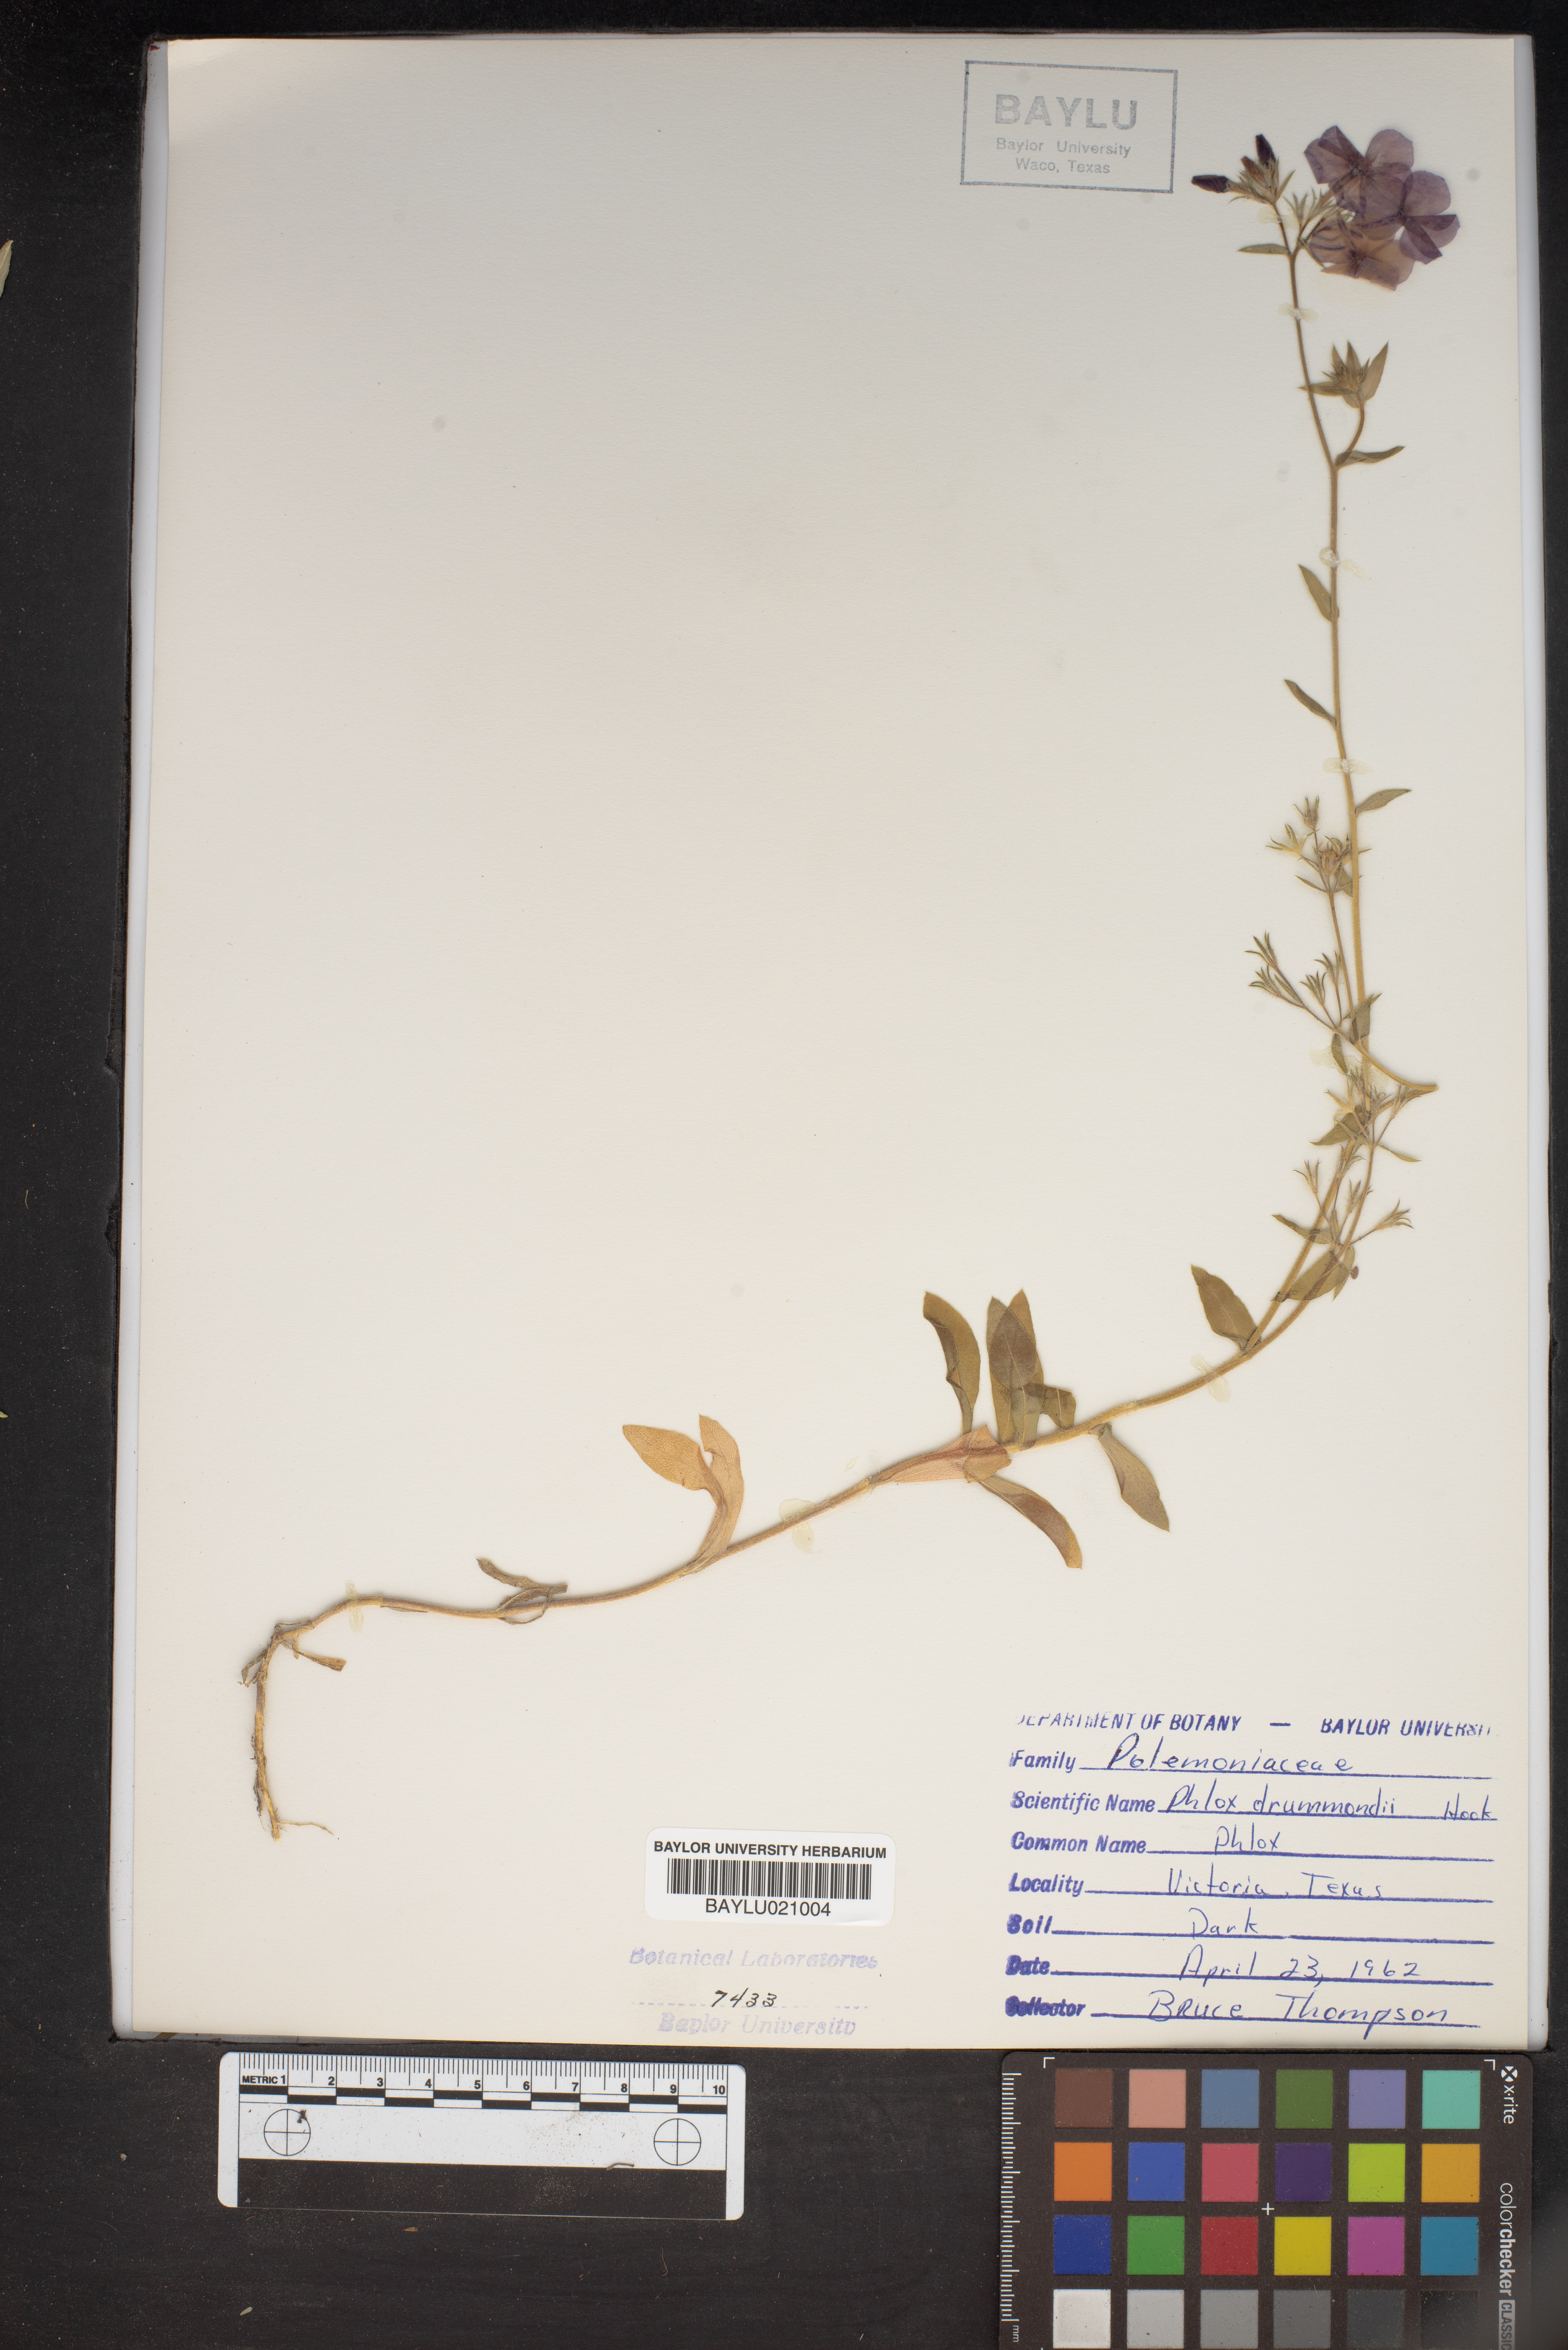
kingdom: Plantae
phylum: Tracheophyta
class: Magnoliopsida
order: Ericales
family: Polemoniaceae
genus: Phlox
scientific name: Phlox drummondii
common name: Drummond's phlox
